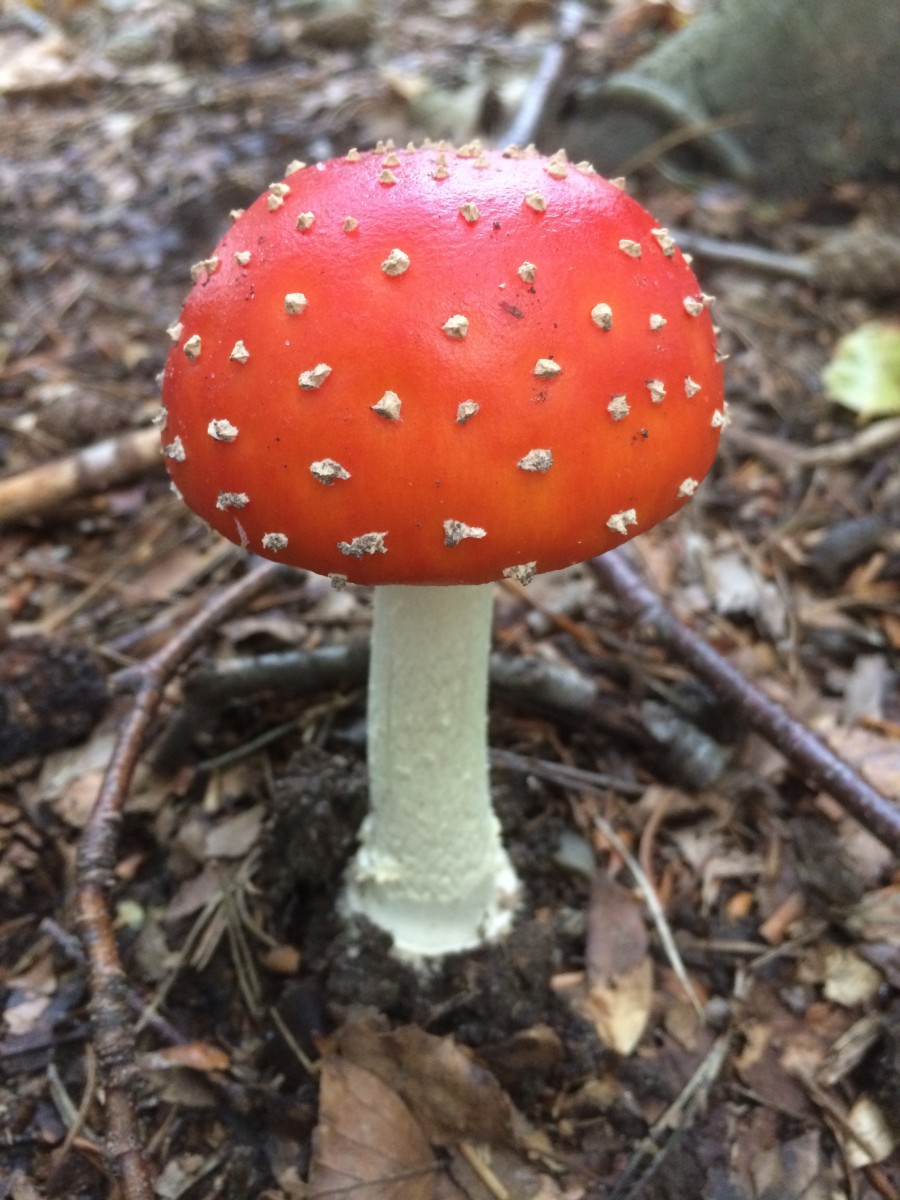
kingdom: Fungi
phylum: Basidiomycota
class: Agaricomycetes
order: Agaricales
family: Amanitaceae
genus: Amanita
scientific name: Amanita muscaria
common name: rød fluesvamp
